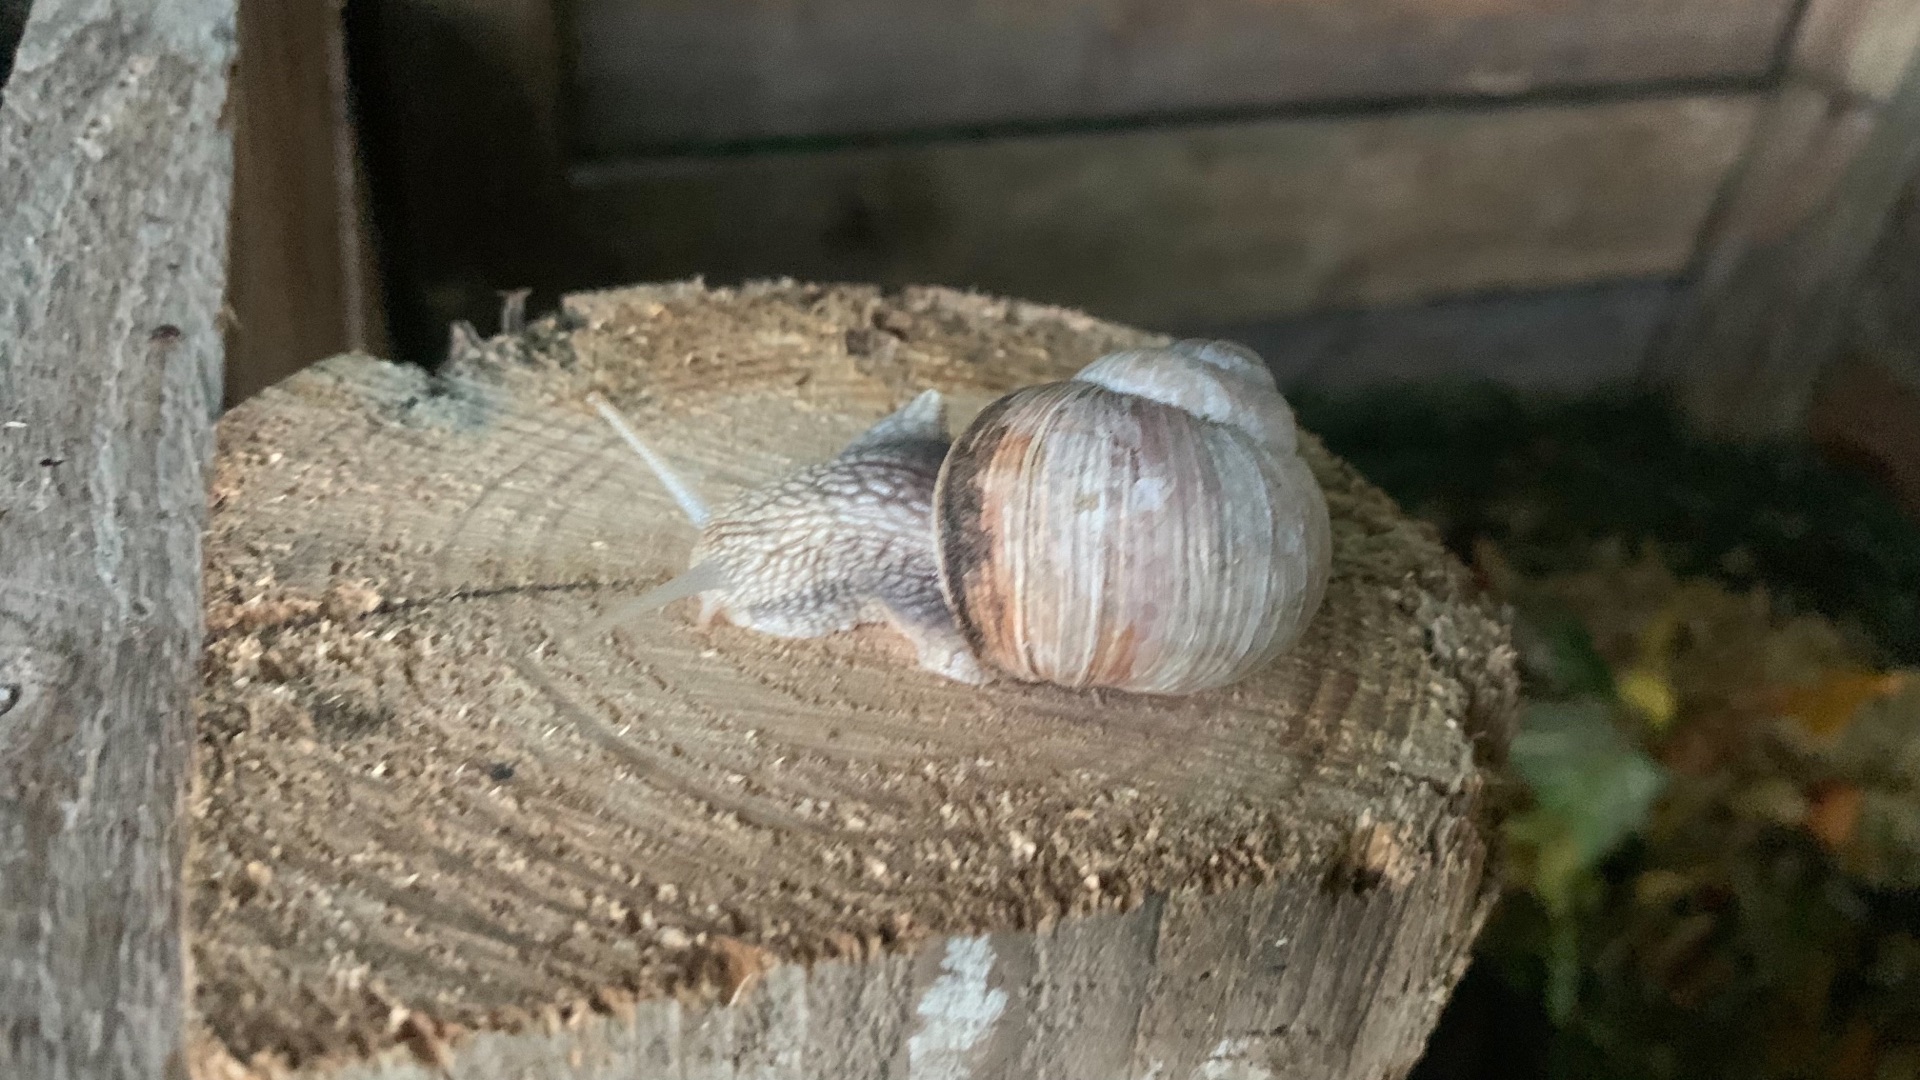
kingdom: Animalia
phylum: Mollusca
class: Gastropoda
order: Stylommatophora
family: Helicidae
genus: Helix
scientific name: Helix pomatia
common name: Vinbjergsnegl
